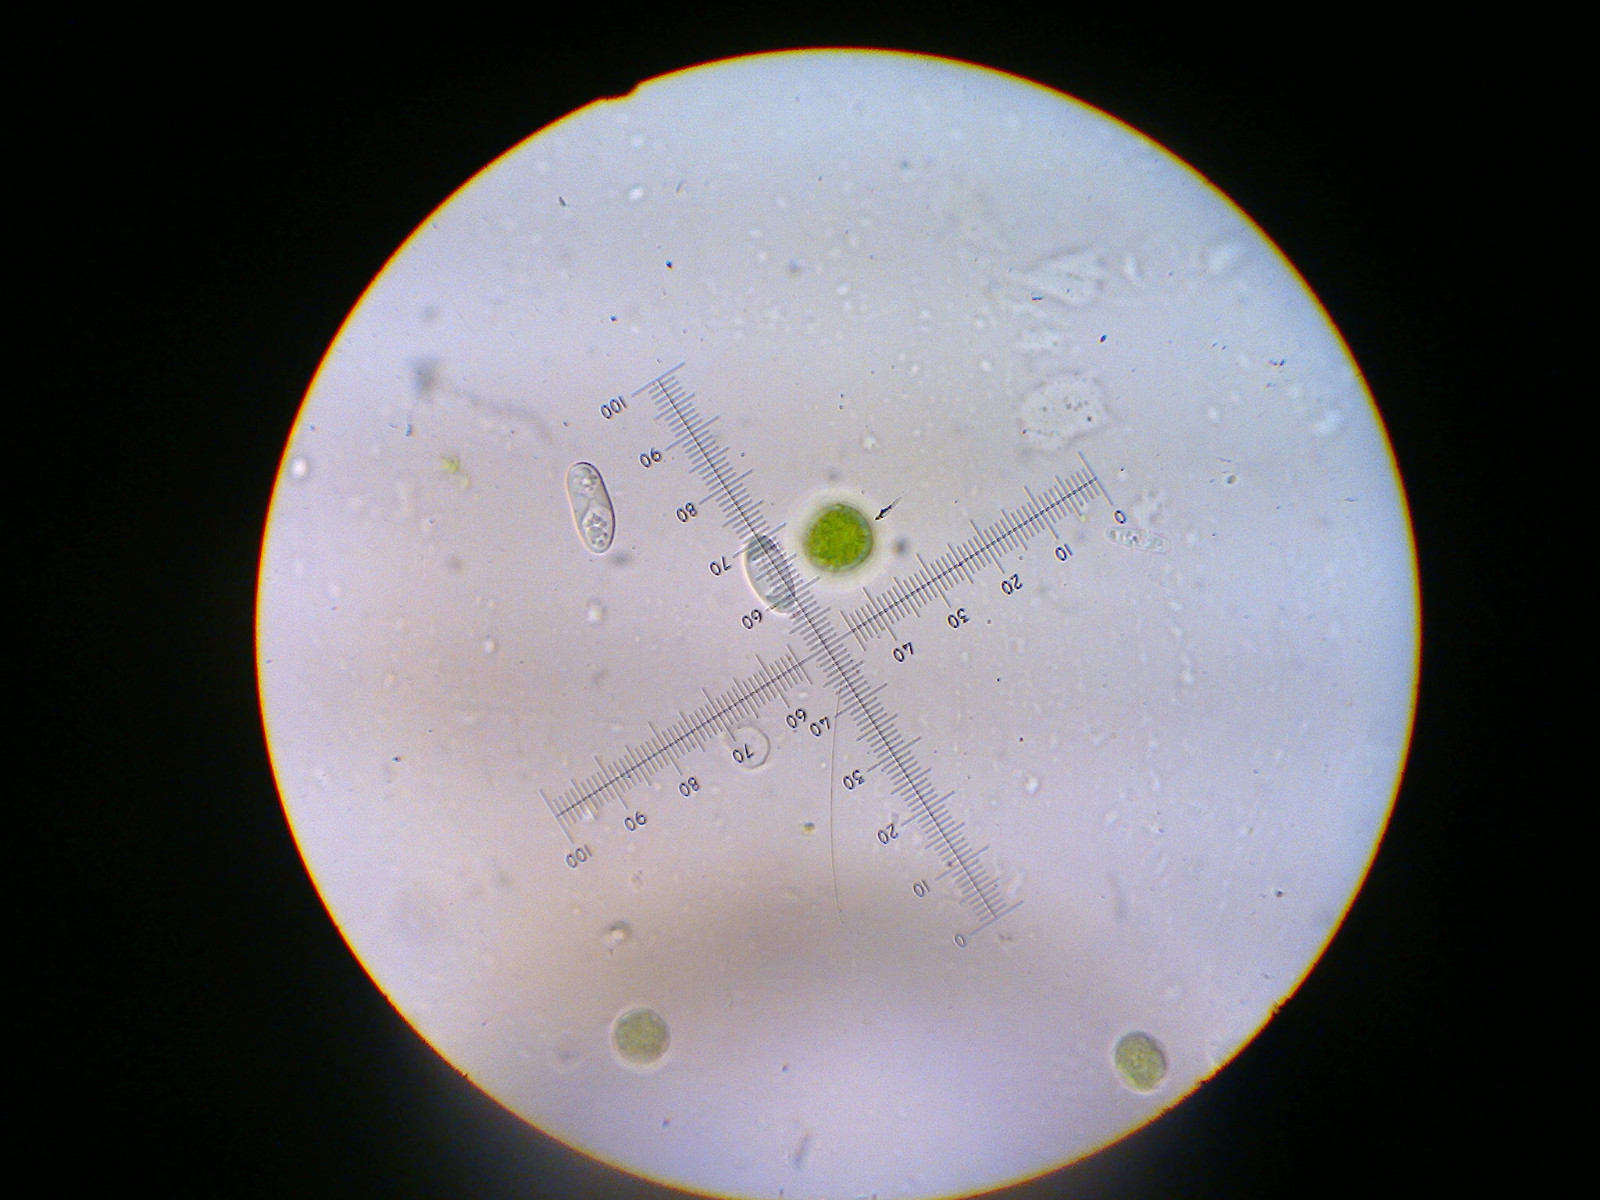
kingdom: Fungi
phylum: Ascomycota
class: Lecanoromycetes
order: Teloschistales
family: Teloschistaceae
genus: Athallia
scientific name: Athallia pyracea
